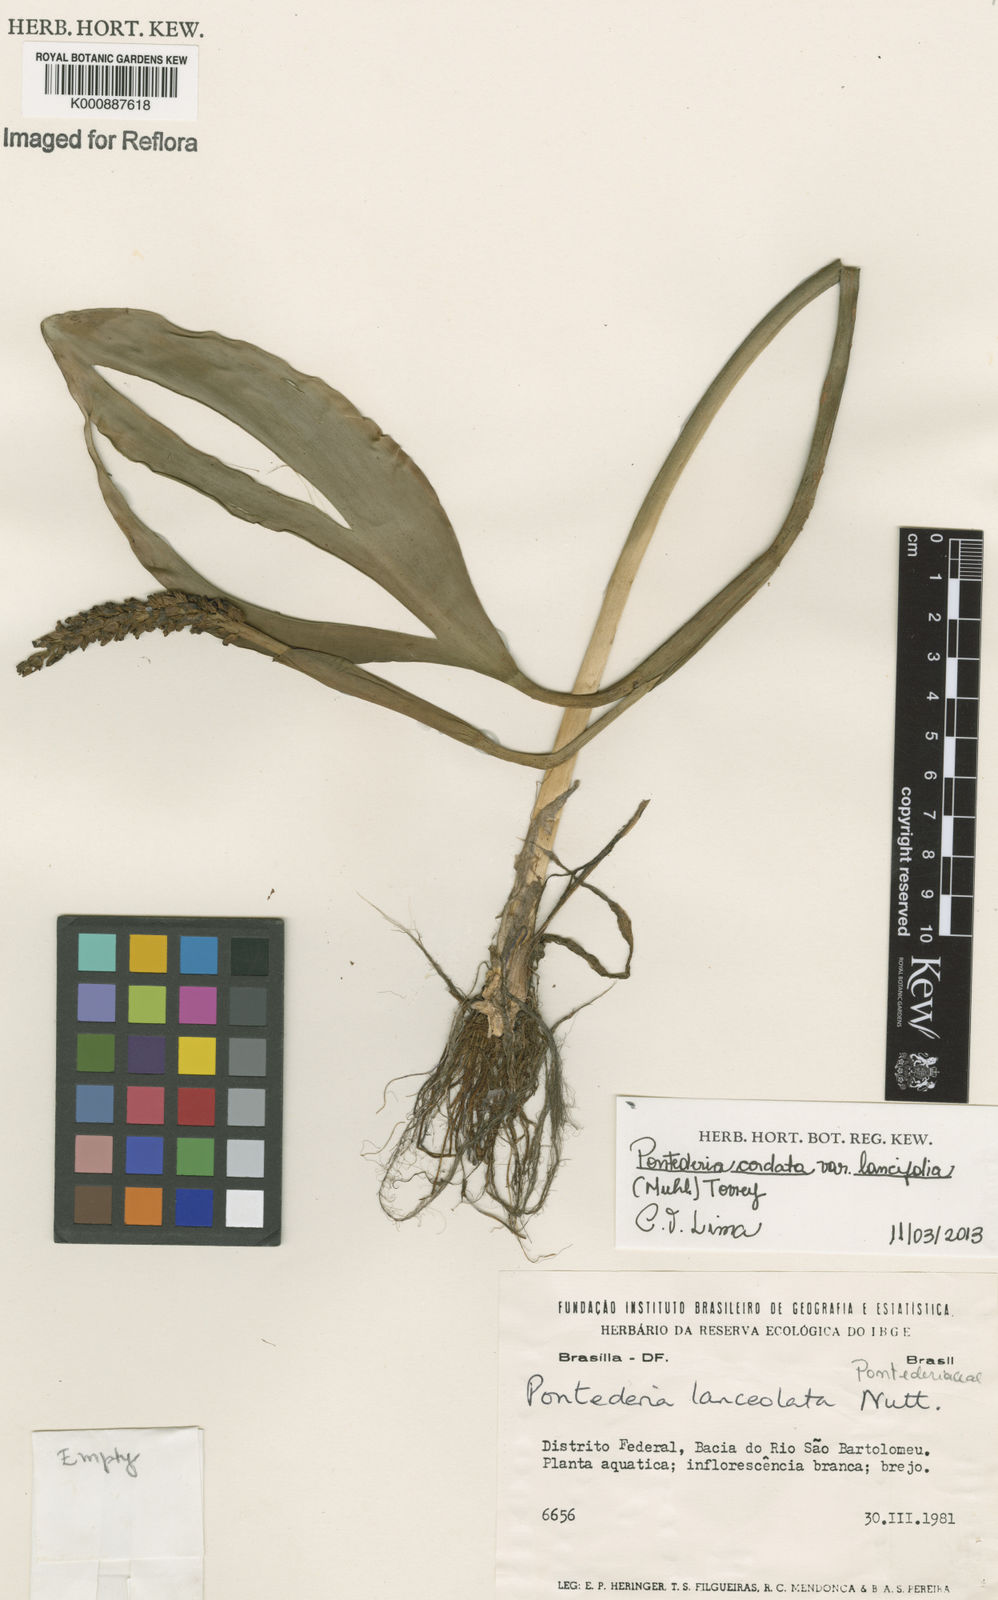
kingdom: Plantae
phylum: Tracheophyta
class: Liliopsida
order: Commelinales
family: Pontederiaceae
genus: Pontederia
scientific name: Pontederia cordata
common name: Pickerelweed
